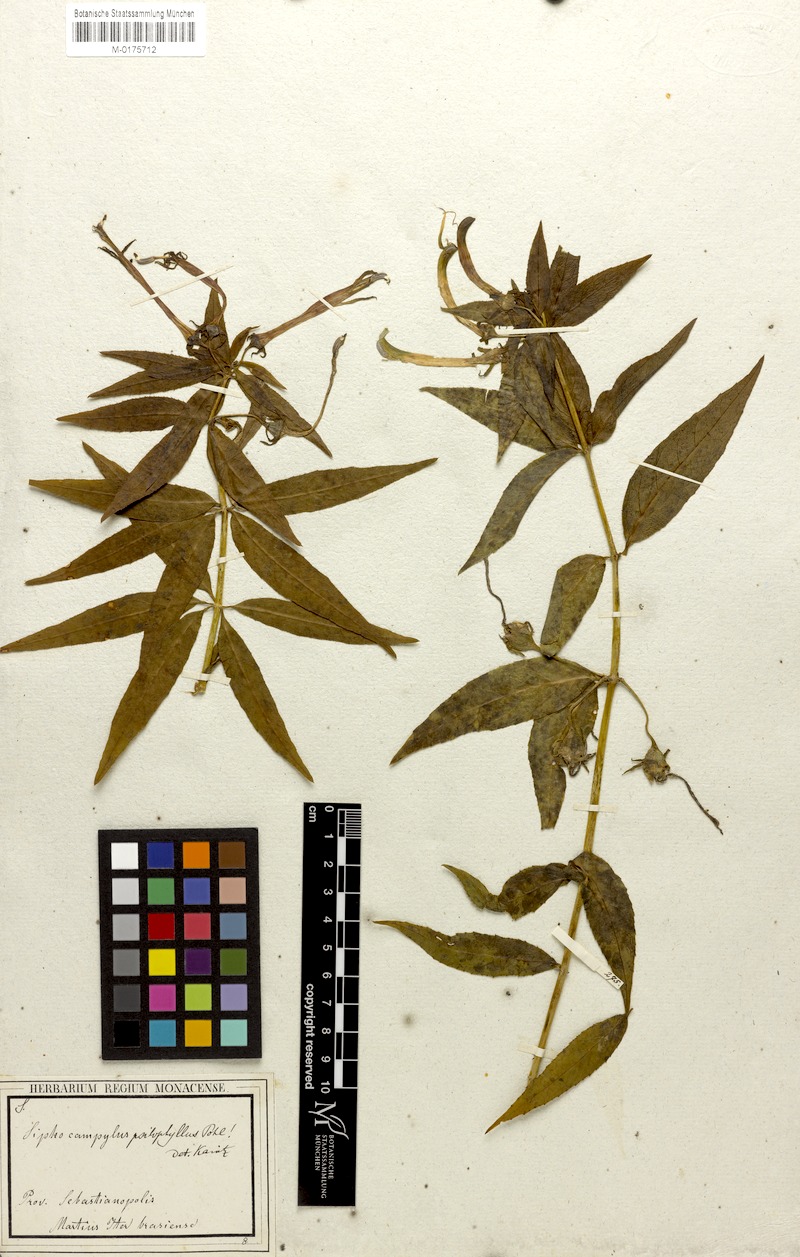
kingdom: Plantae
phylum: Tracheophyta
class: Magnoliopsida
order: Asterales
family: Campanulaceae
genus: Siphocampylus
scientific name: Siphocampylus psilophyllus
